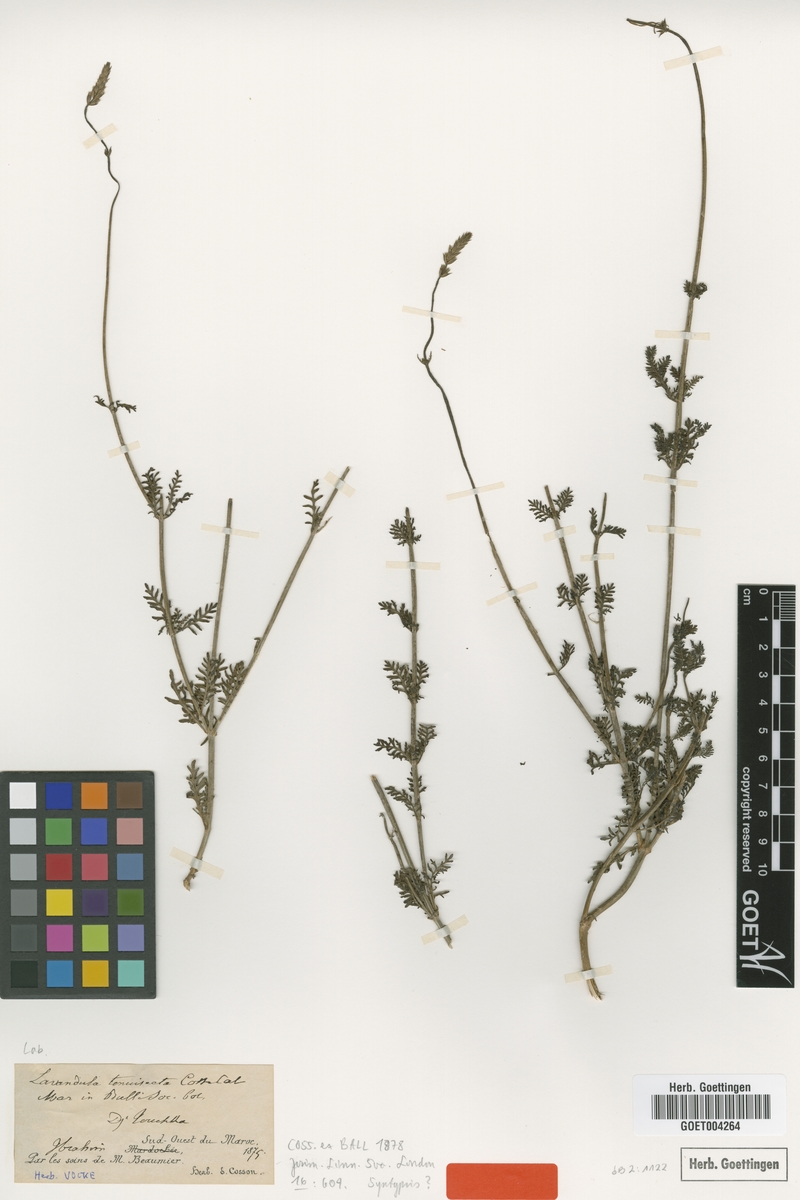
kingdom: Plantae
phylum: Tracheophyta
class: Magnoliopsida
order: Lamiales
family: Lamiaceae
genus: Lavandula
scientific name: Lavandula tenuisecta
